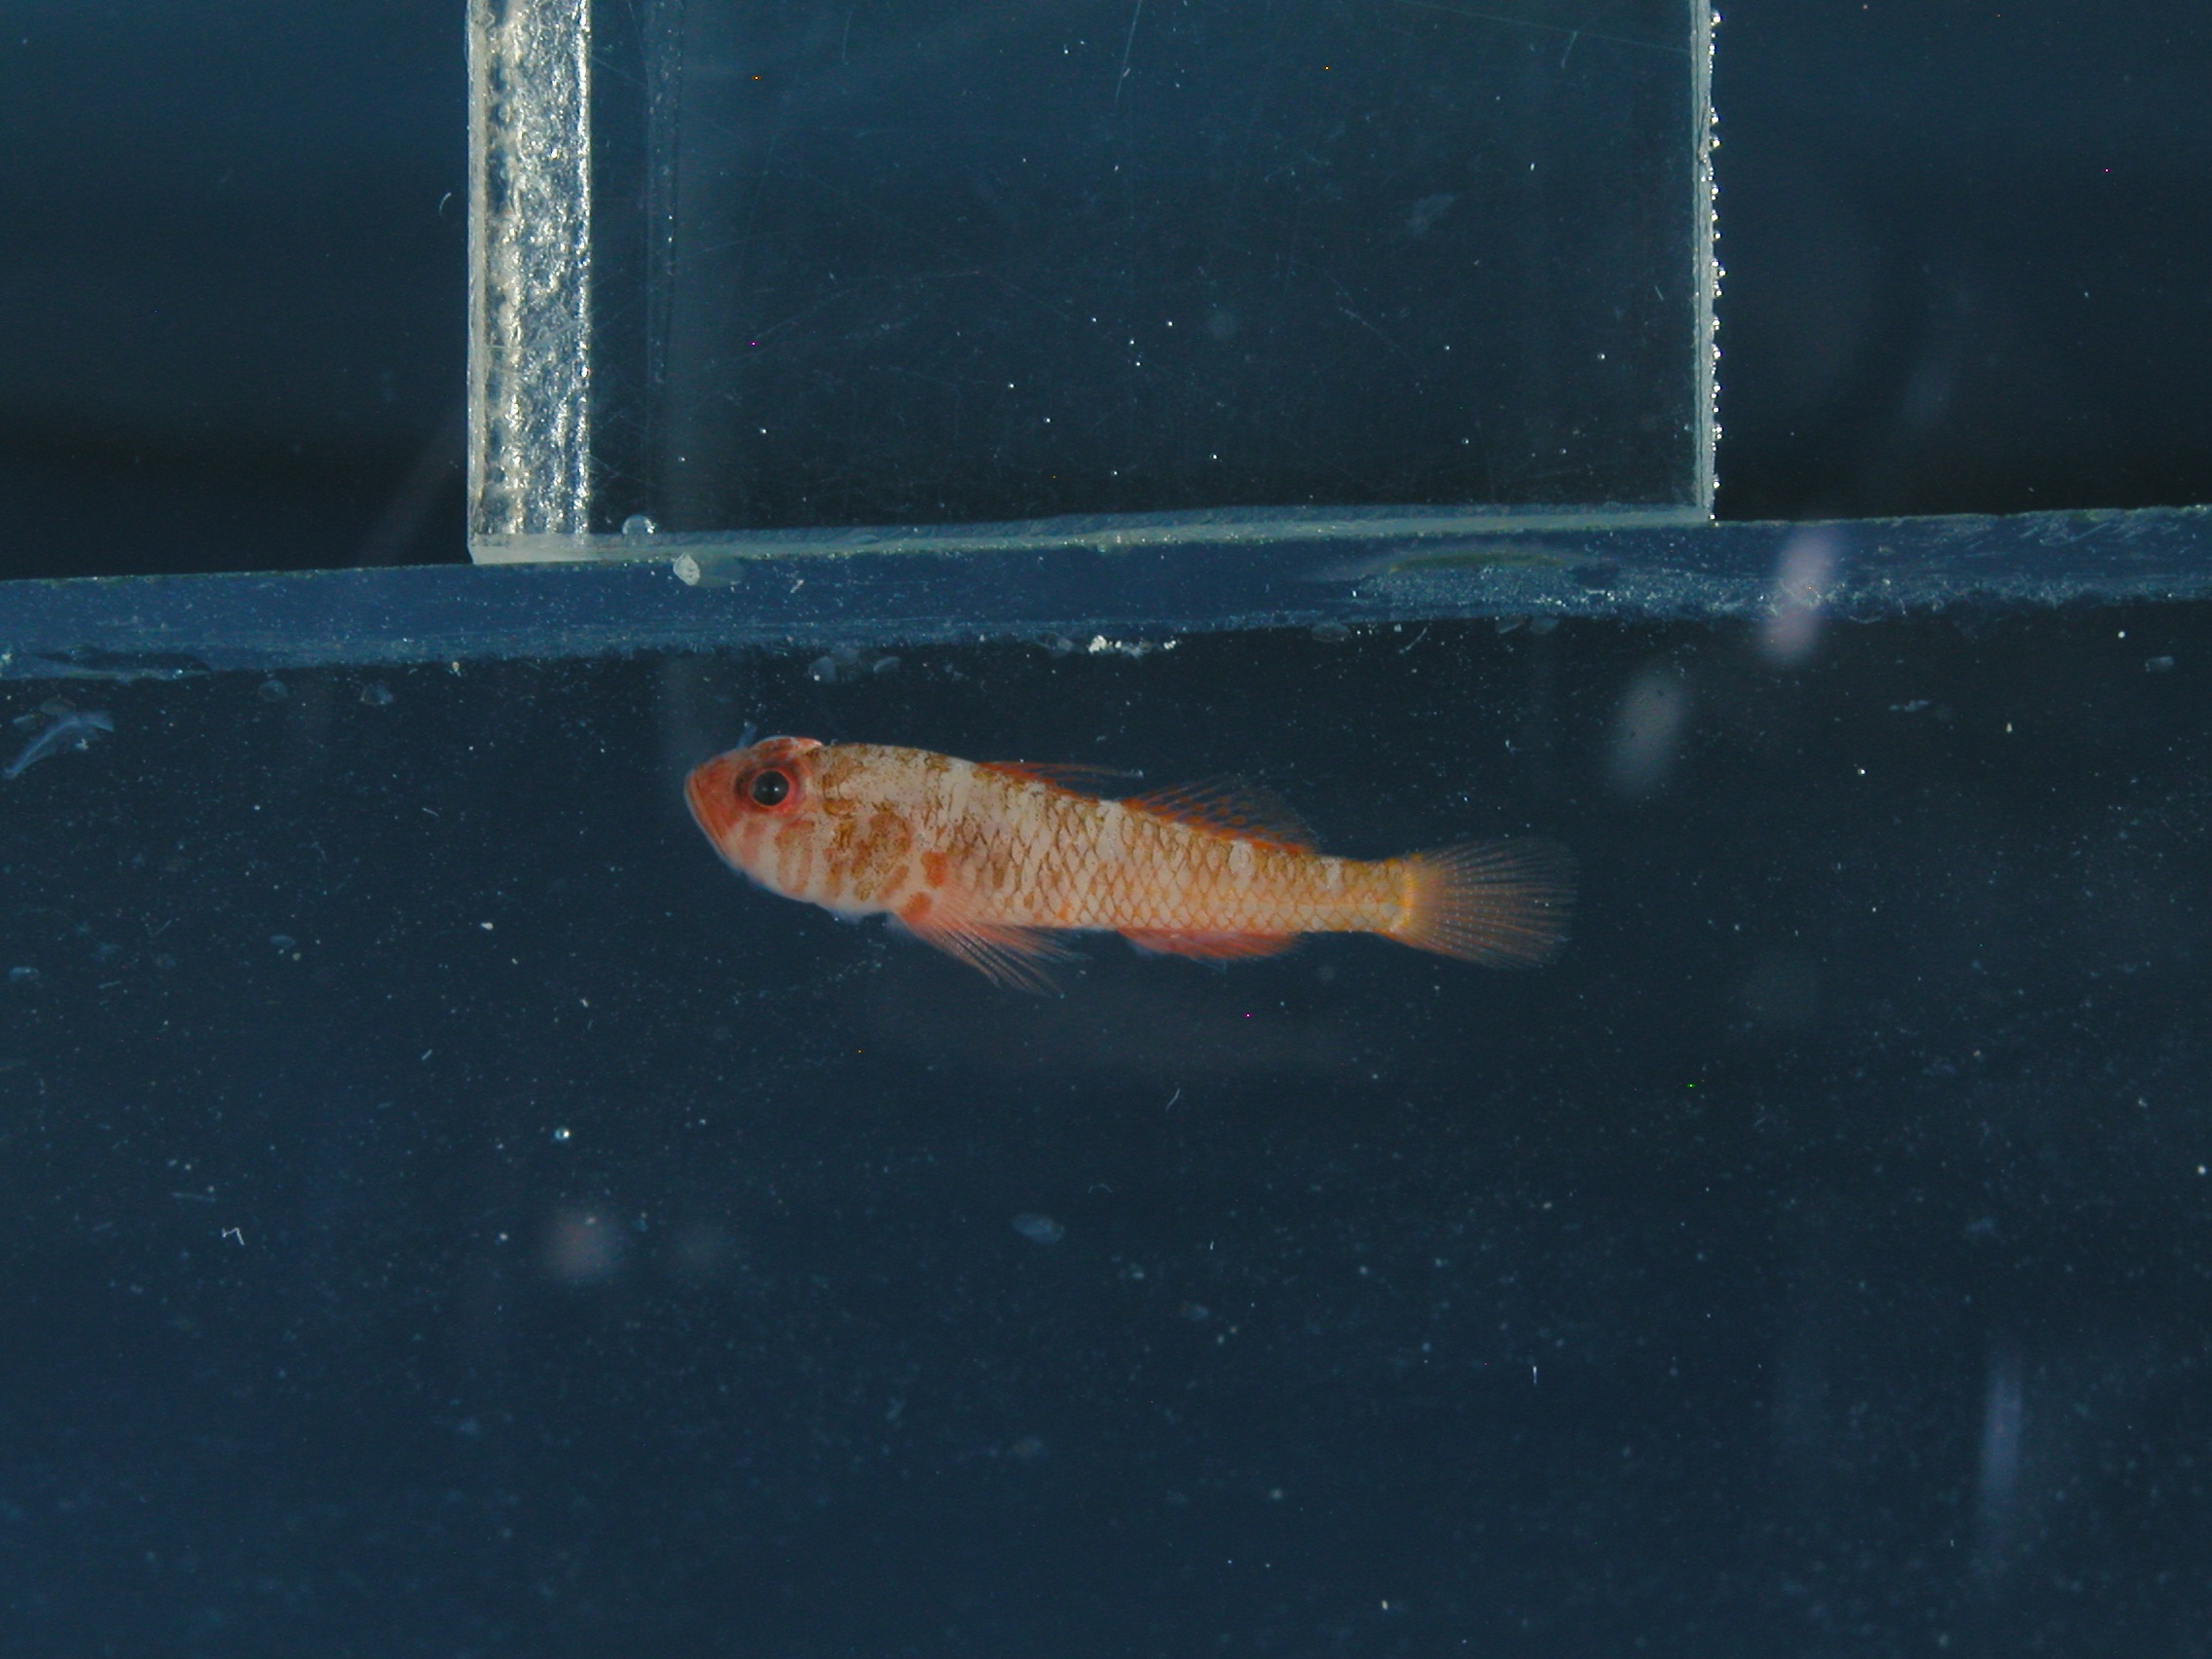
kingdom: Animalia
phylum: Chordata
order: Perciformes
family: Gobiidae
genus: Trimma
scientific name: Trimma mendelssohni
